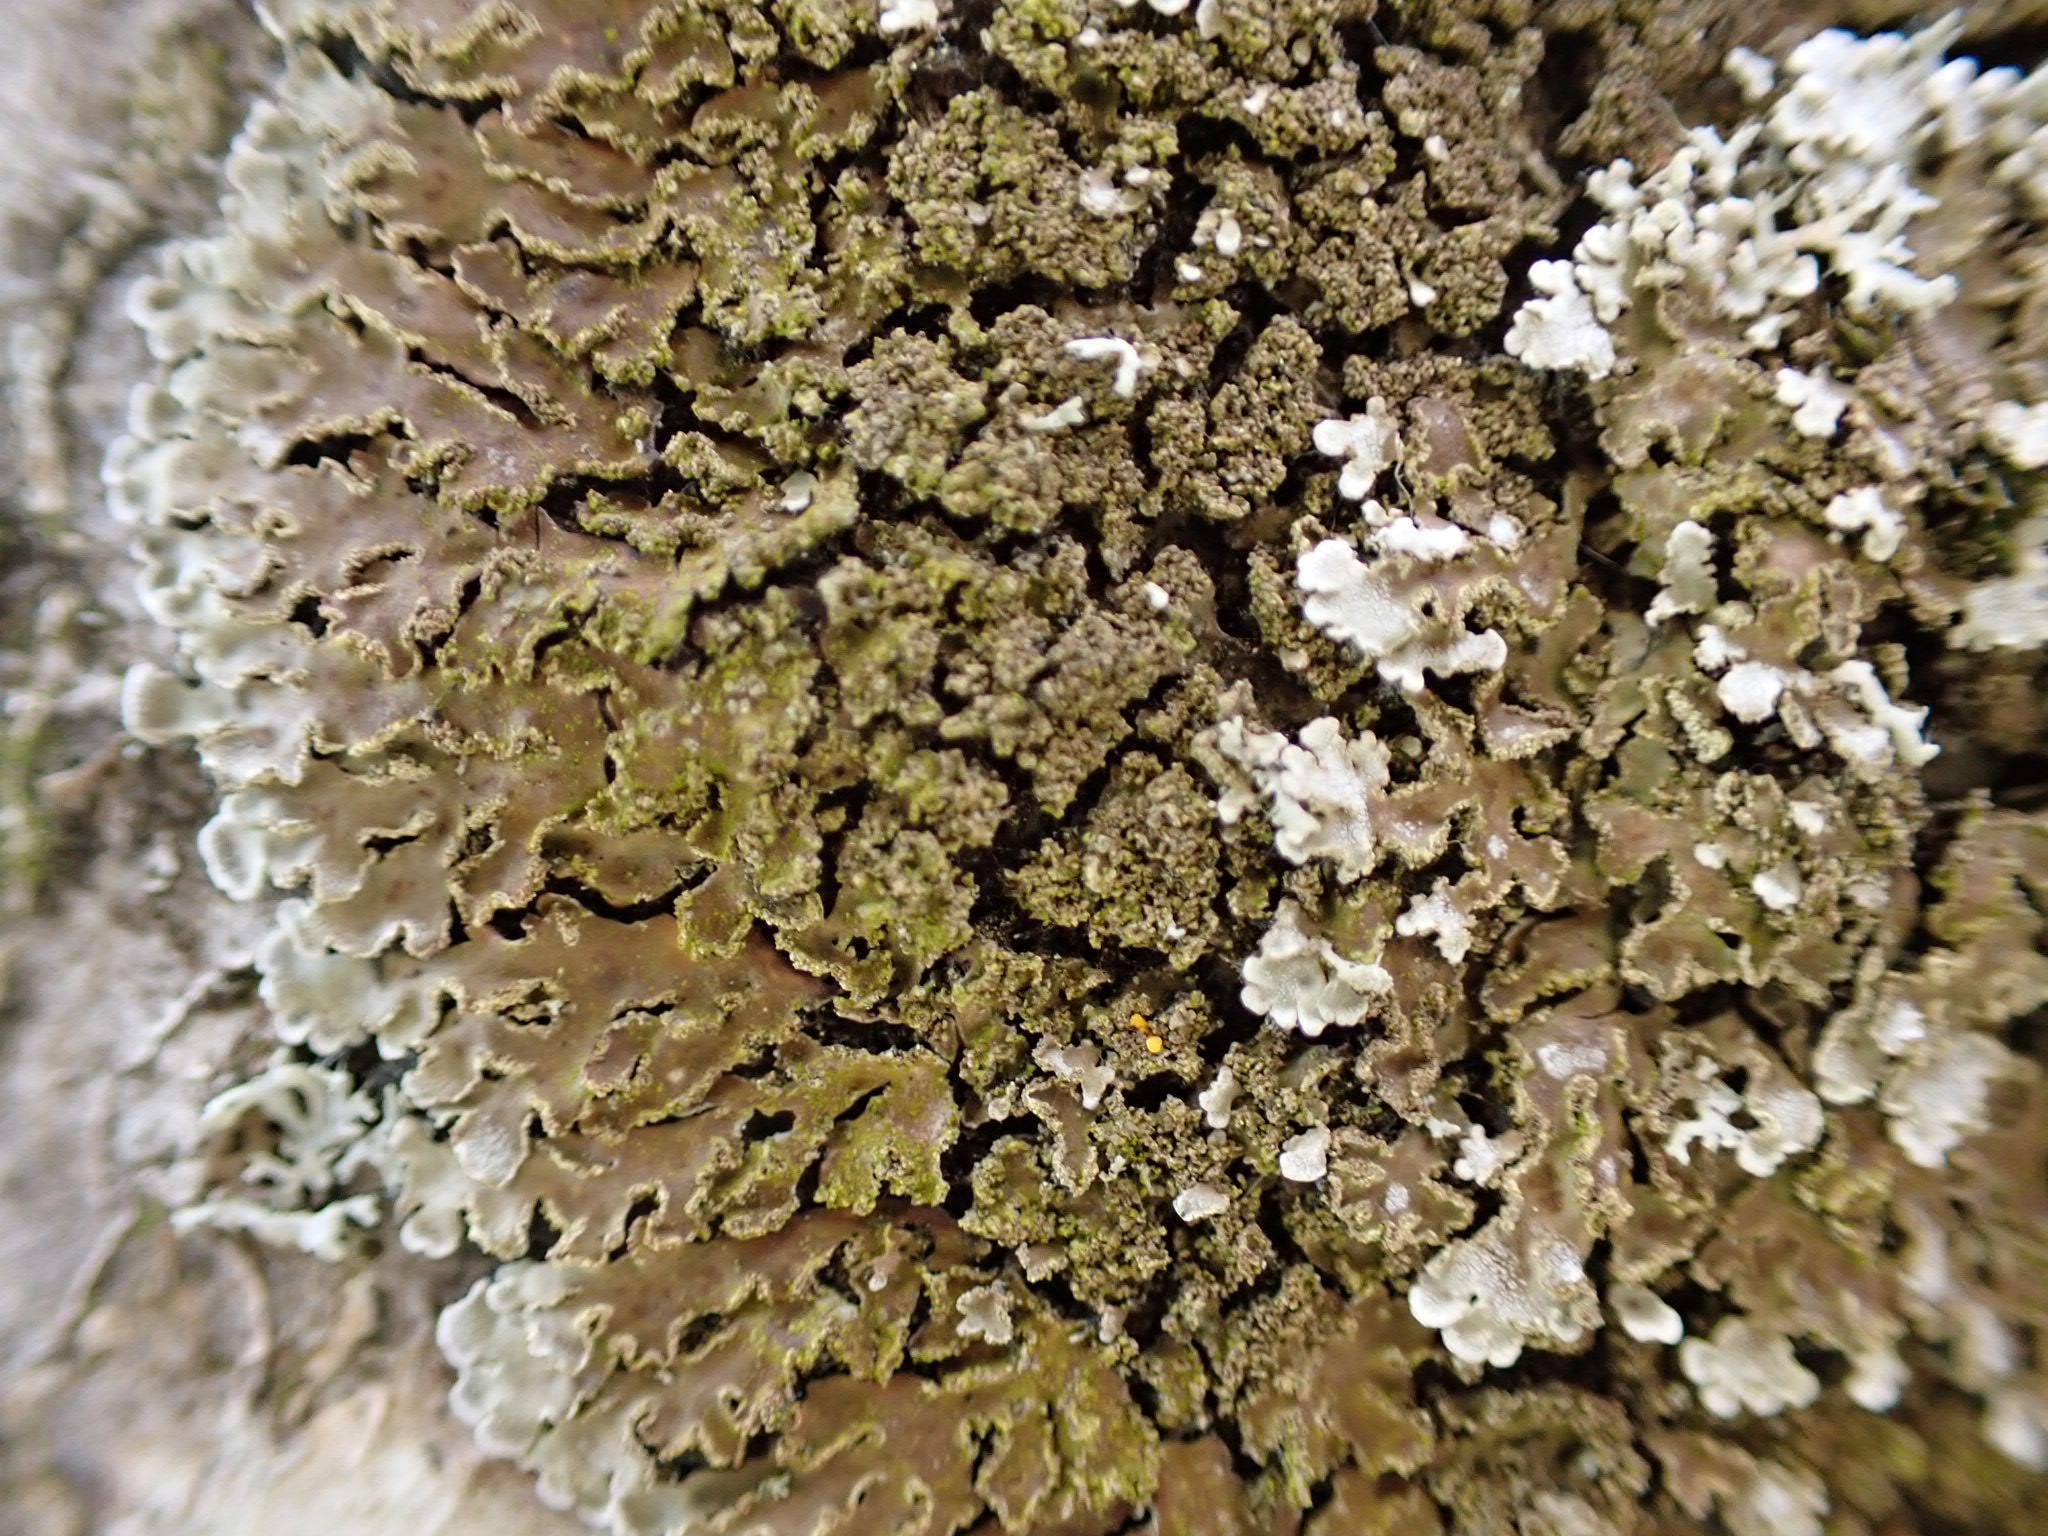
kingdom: Fungi
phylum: Ascomycota
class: Lecanoromycetes
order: Caliciales
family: Physciaceae
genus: Physconia
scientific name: Physconia
